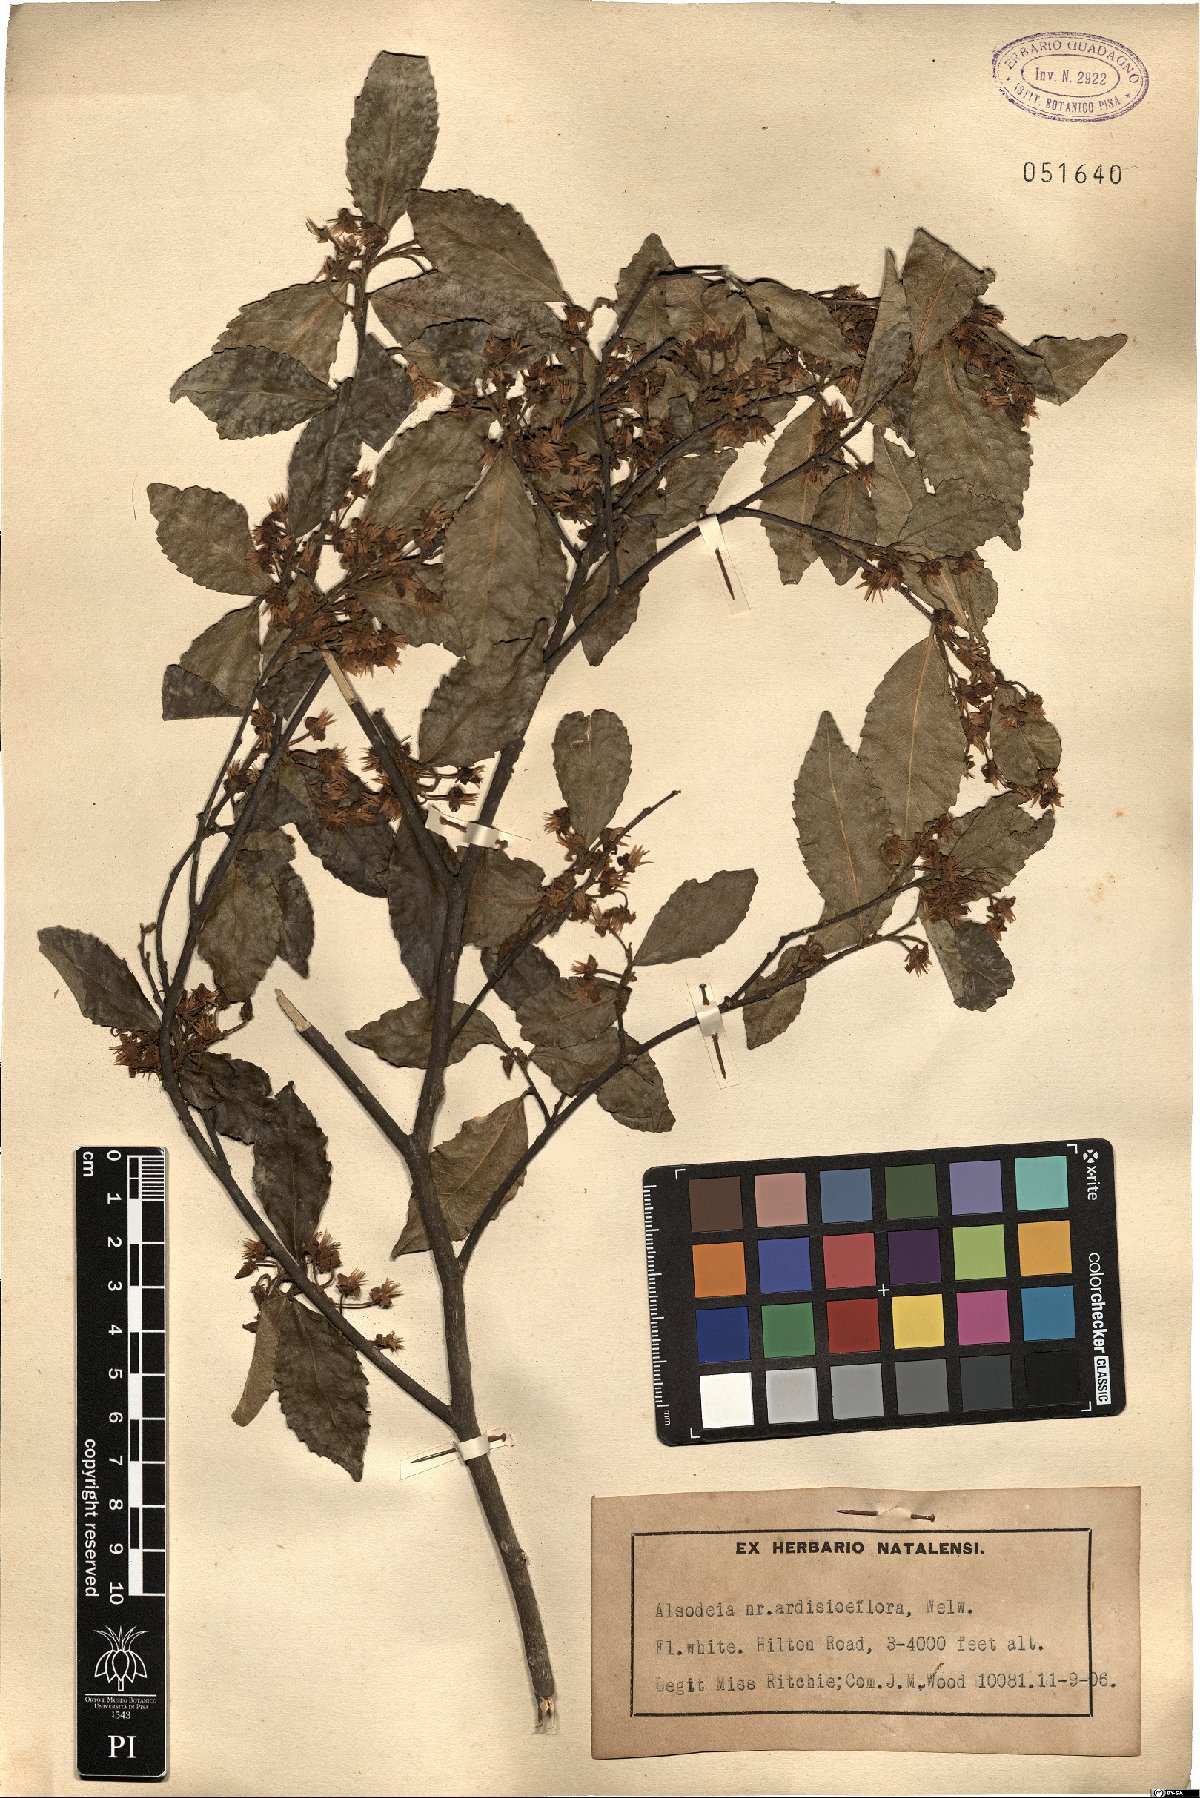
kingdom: Plantae
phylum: Tracheophyta
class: Magnoliopsida
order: Malpighiales
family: Violaceae
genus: Rinorea
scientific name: Rinorea angustifolia
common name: White violet-bush
